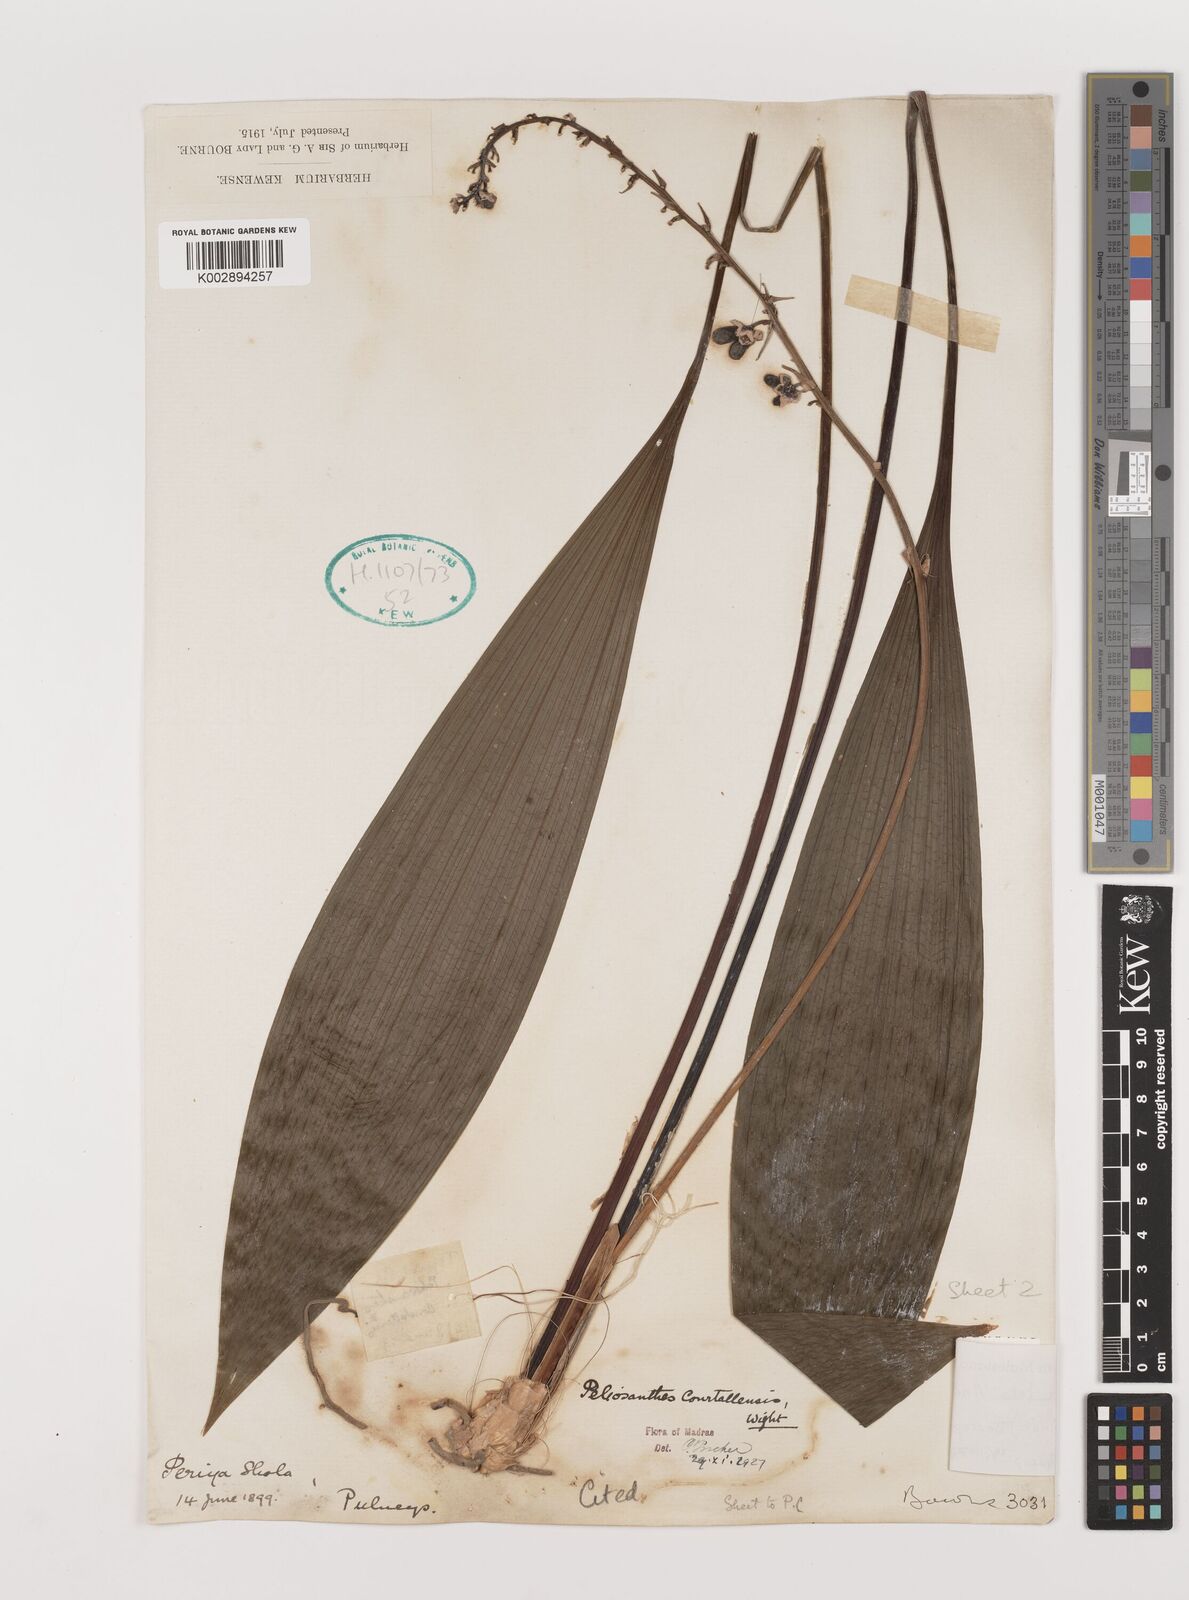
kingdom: Plantae
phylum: Tracheophyta
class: Liliopsida
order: Asparagales
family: Asparagaceae
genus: Peliosanthes
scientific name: Peliosanthes teta
